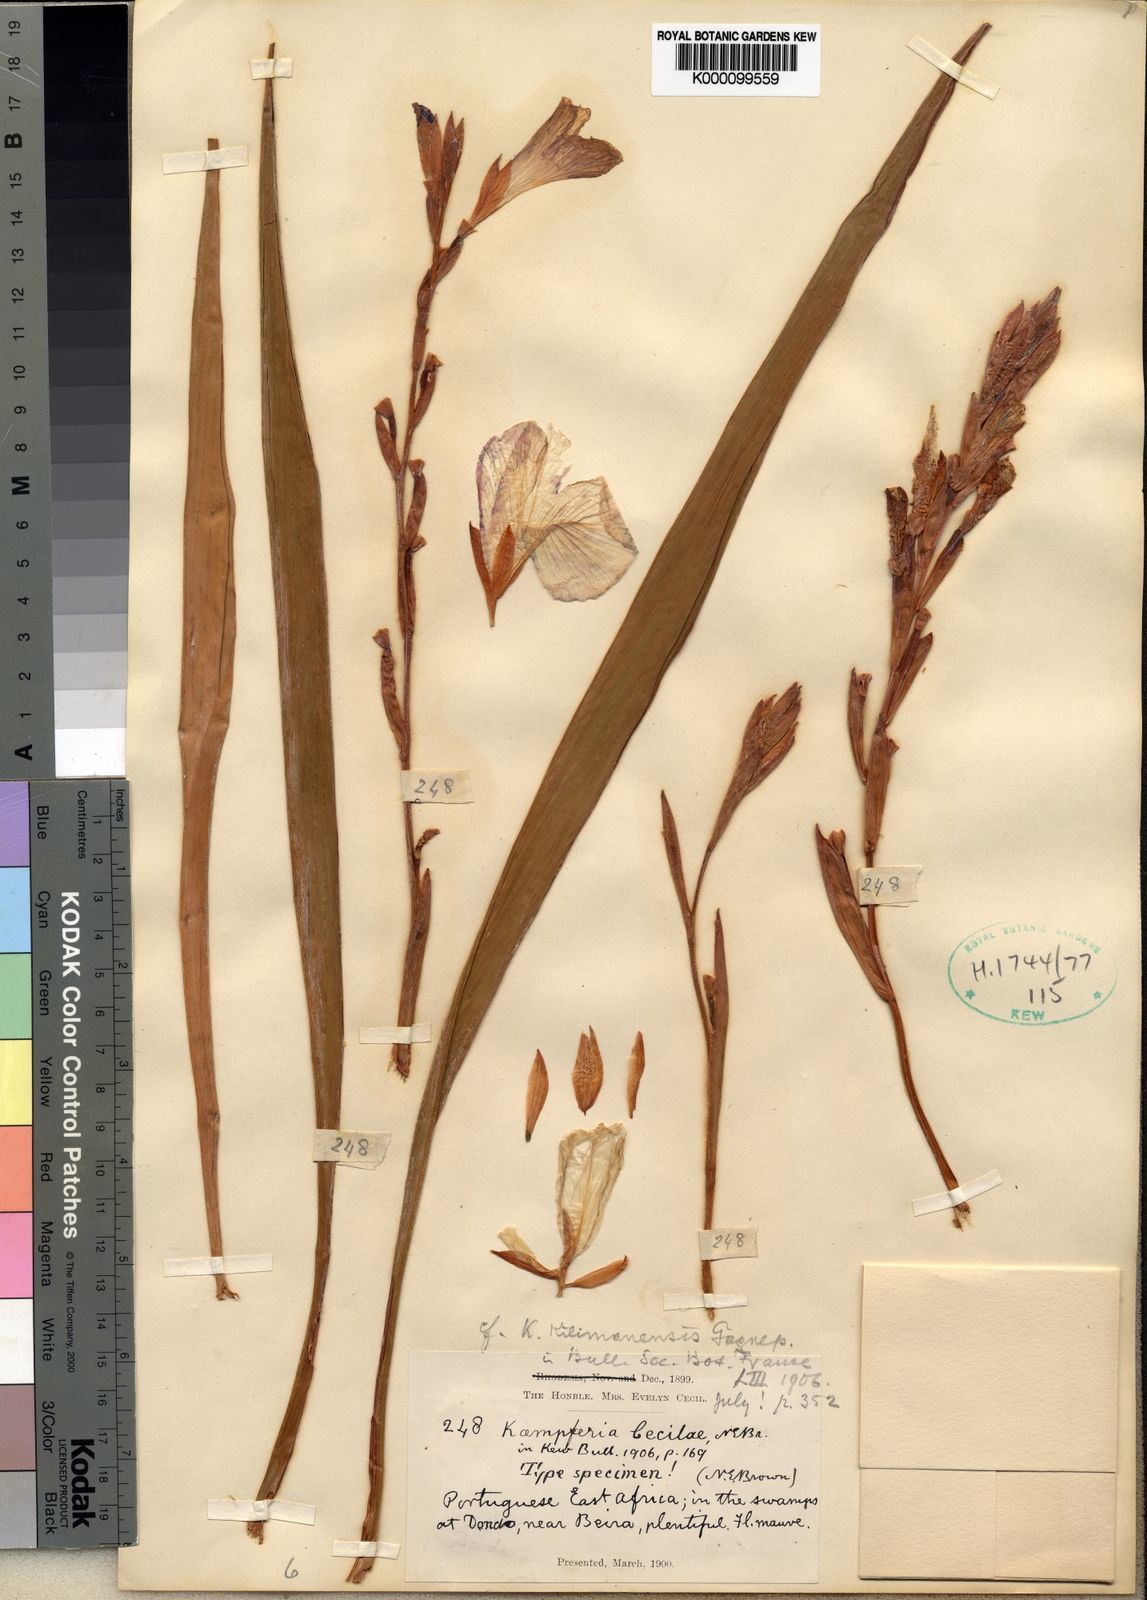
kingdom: Plantae
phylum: Tracheophyta
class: Liliopsida
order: Zingiberales
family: Zingiberaceae
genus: Siphonochilus
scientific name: Siphonochilus kilimanensis
